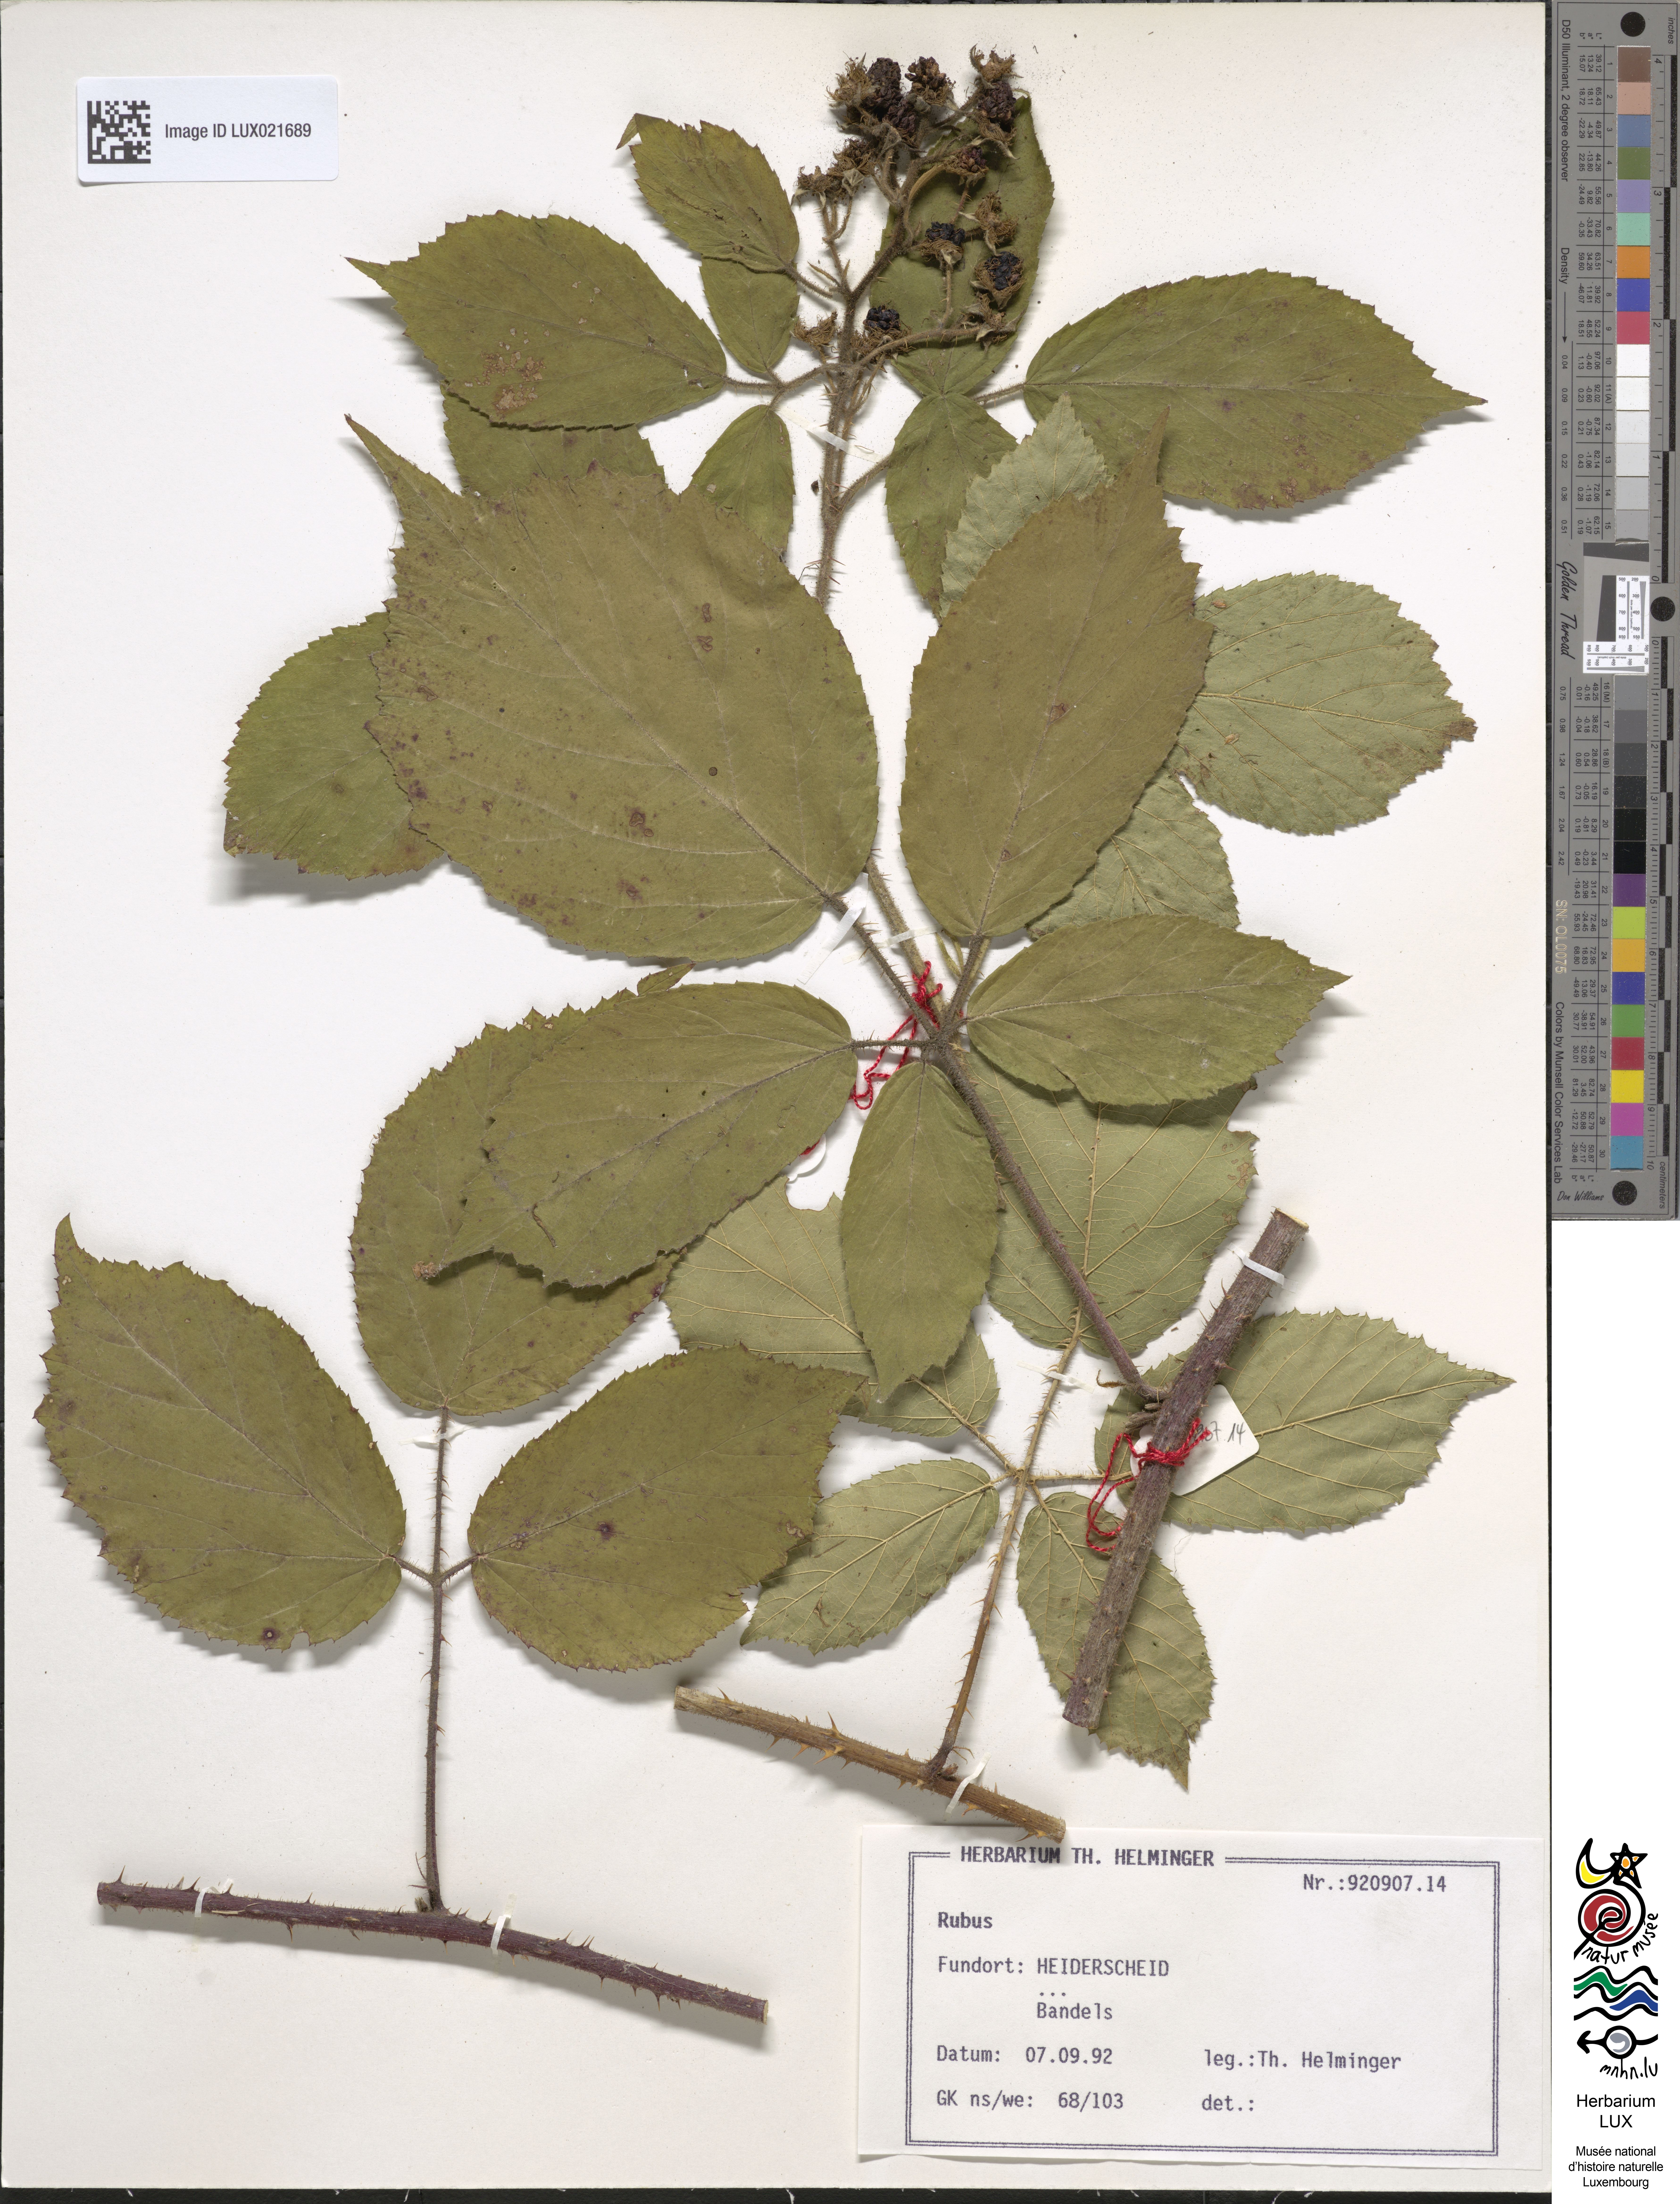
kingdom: Plantae
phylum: Tracheophyta
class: Magnoliopsida
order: Rosales
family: Rosaceae
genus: Rubus
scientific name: Rubus
